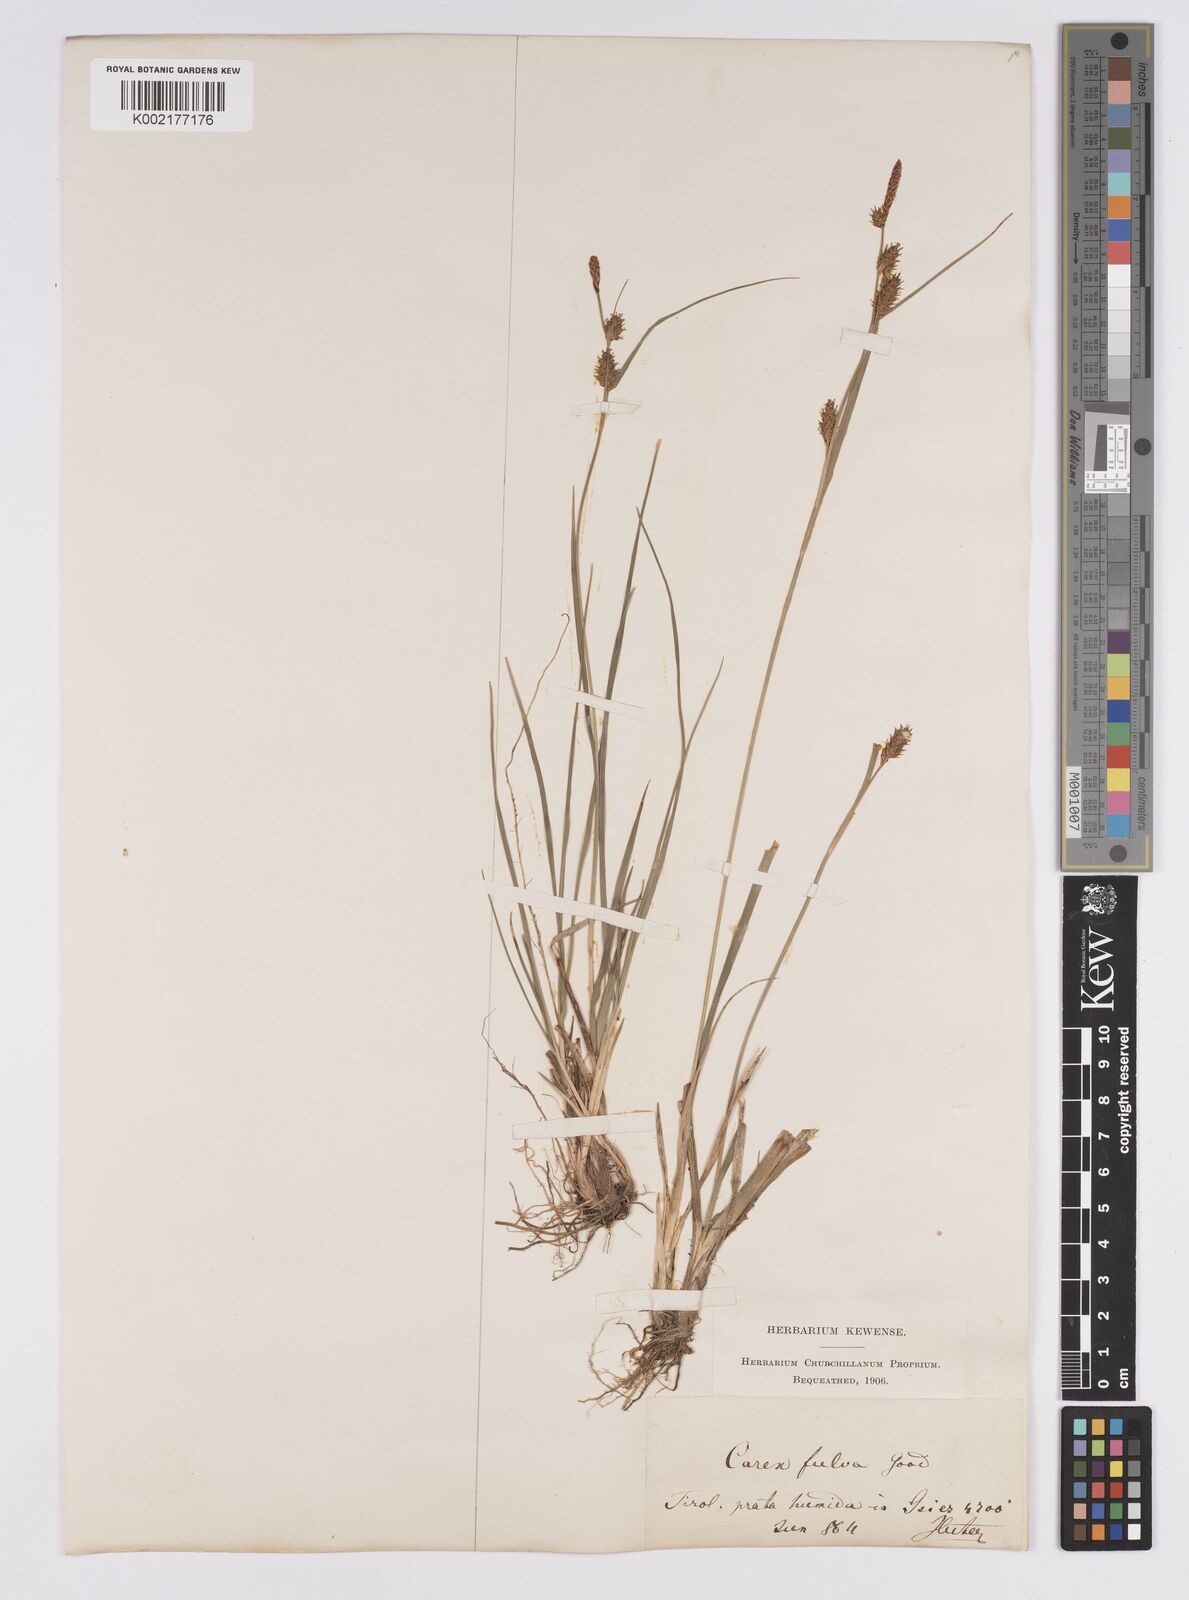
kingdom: Plantae
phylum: Tracheophyta
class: Liliopsida
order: Poales
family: Cyperaceae
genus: Carex
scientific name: Carex hostiana
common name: Tawny sedge
